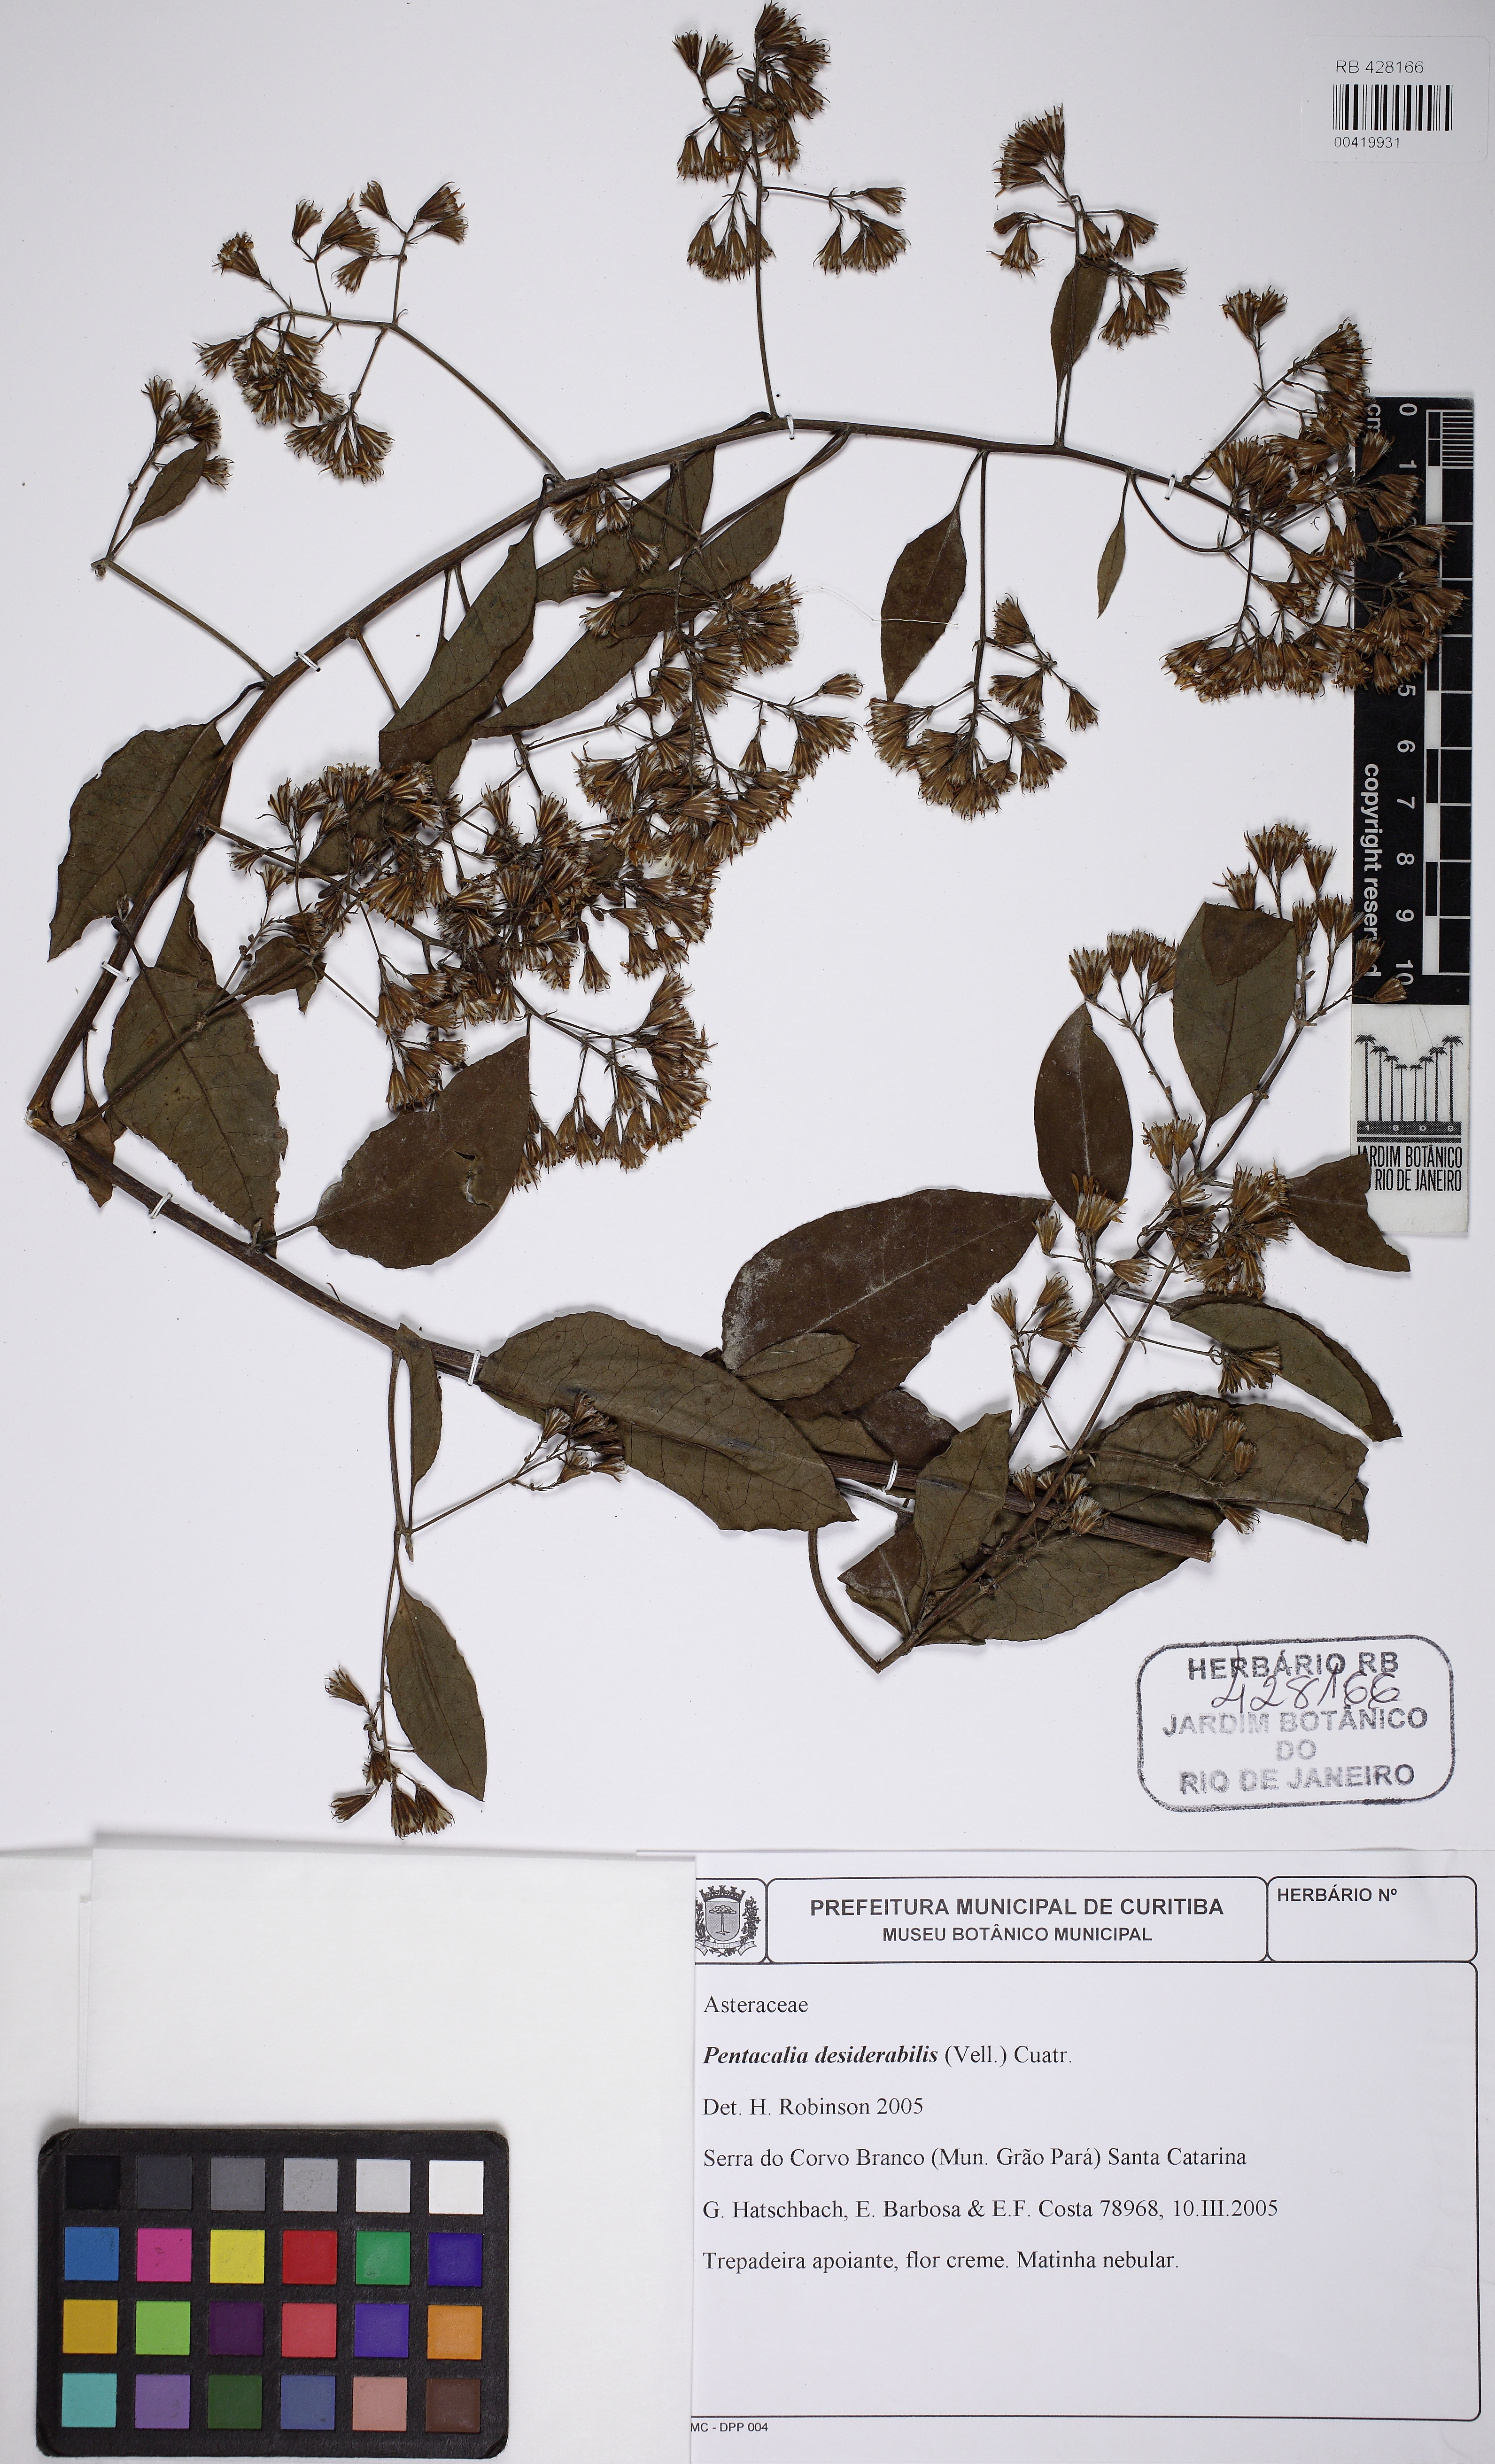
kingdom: Plantae
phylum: Tracheophyta
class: Magnoliopsida
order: Asterales
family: Asteraceae
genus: Pentacalia
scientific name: Pentacalia desiderabilis
